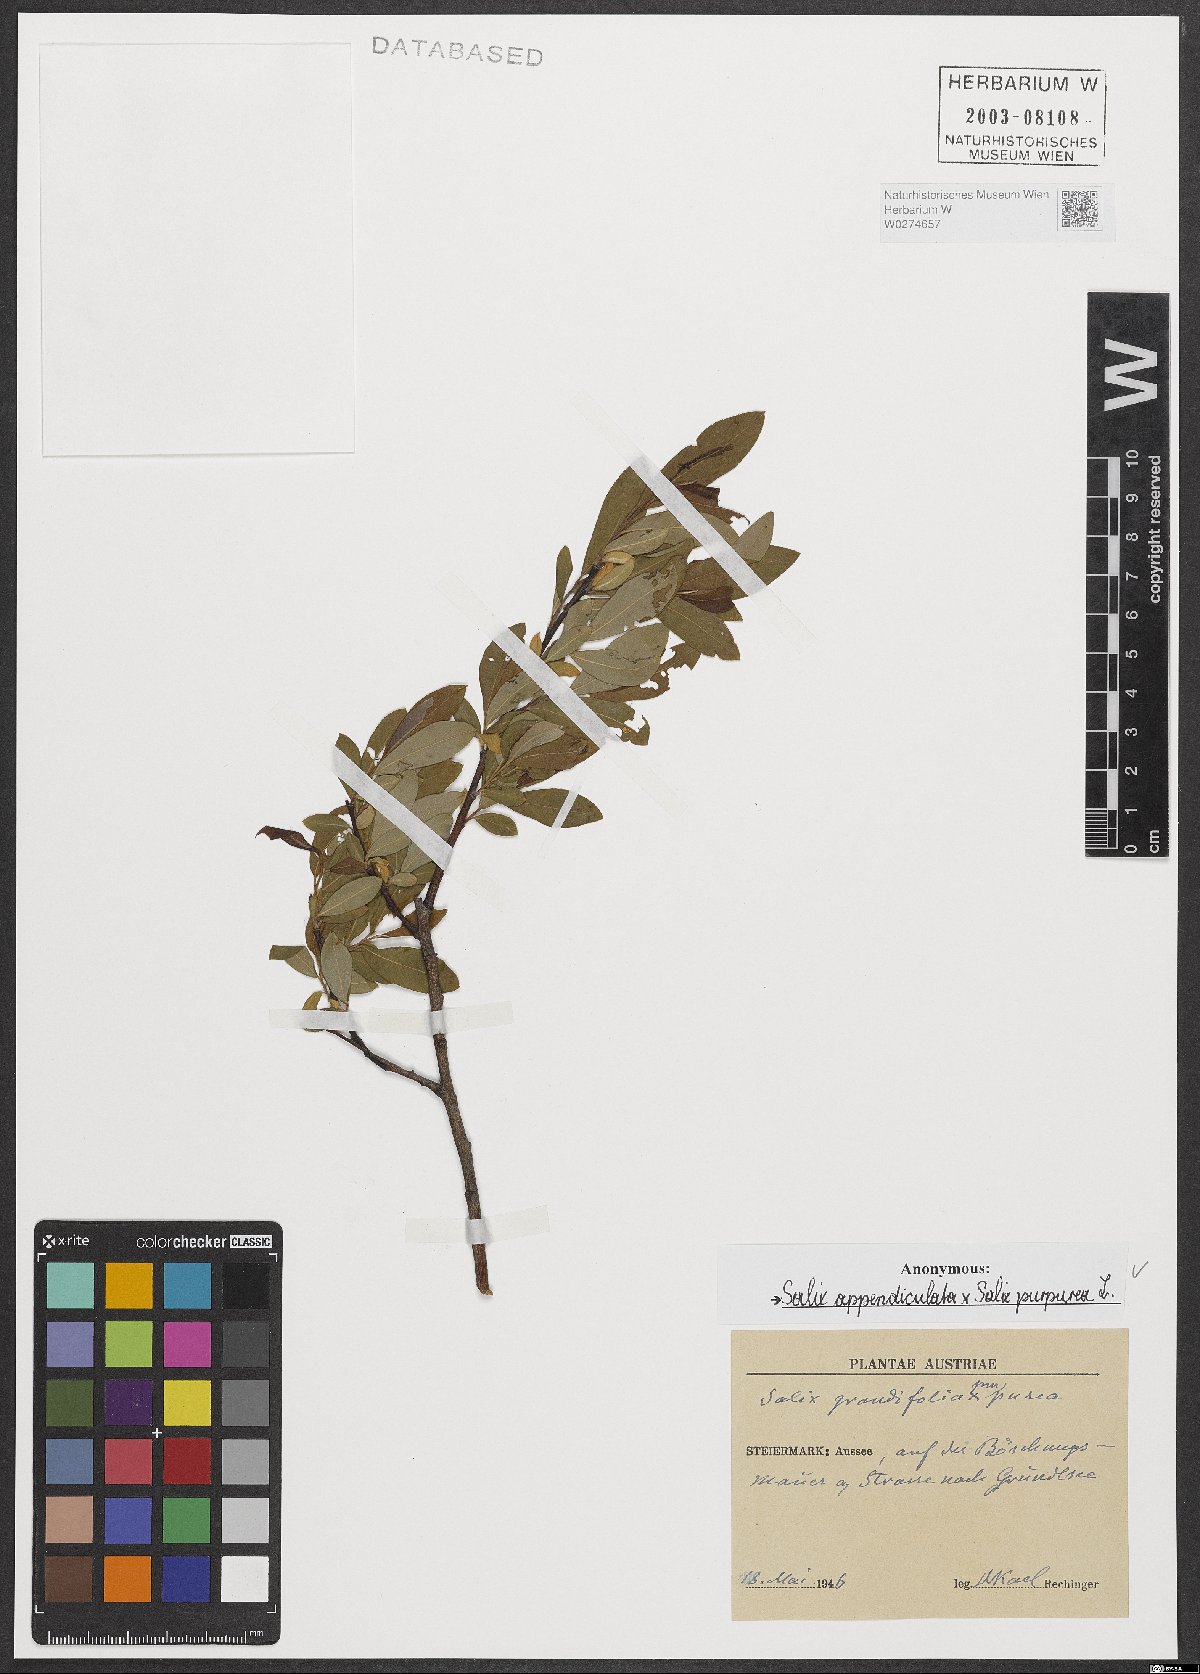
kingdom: Plantae
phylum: Tracheophyta
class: Magnoliopsida
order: Malpighiales
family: Salicaceae
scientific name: Salicaceae
